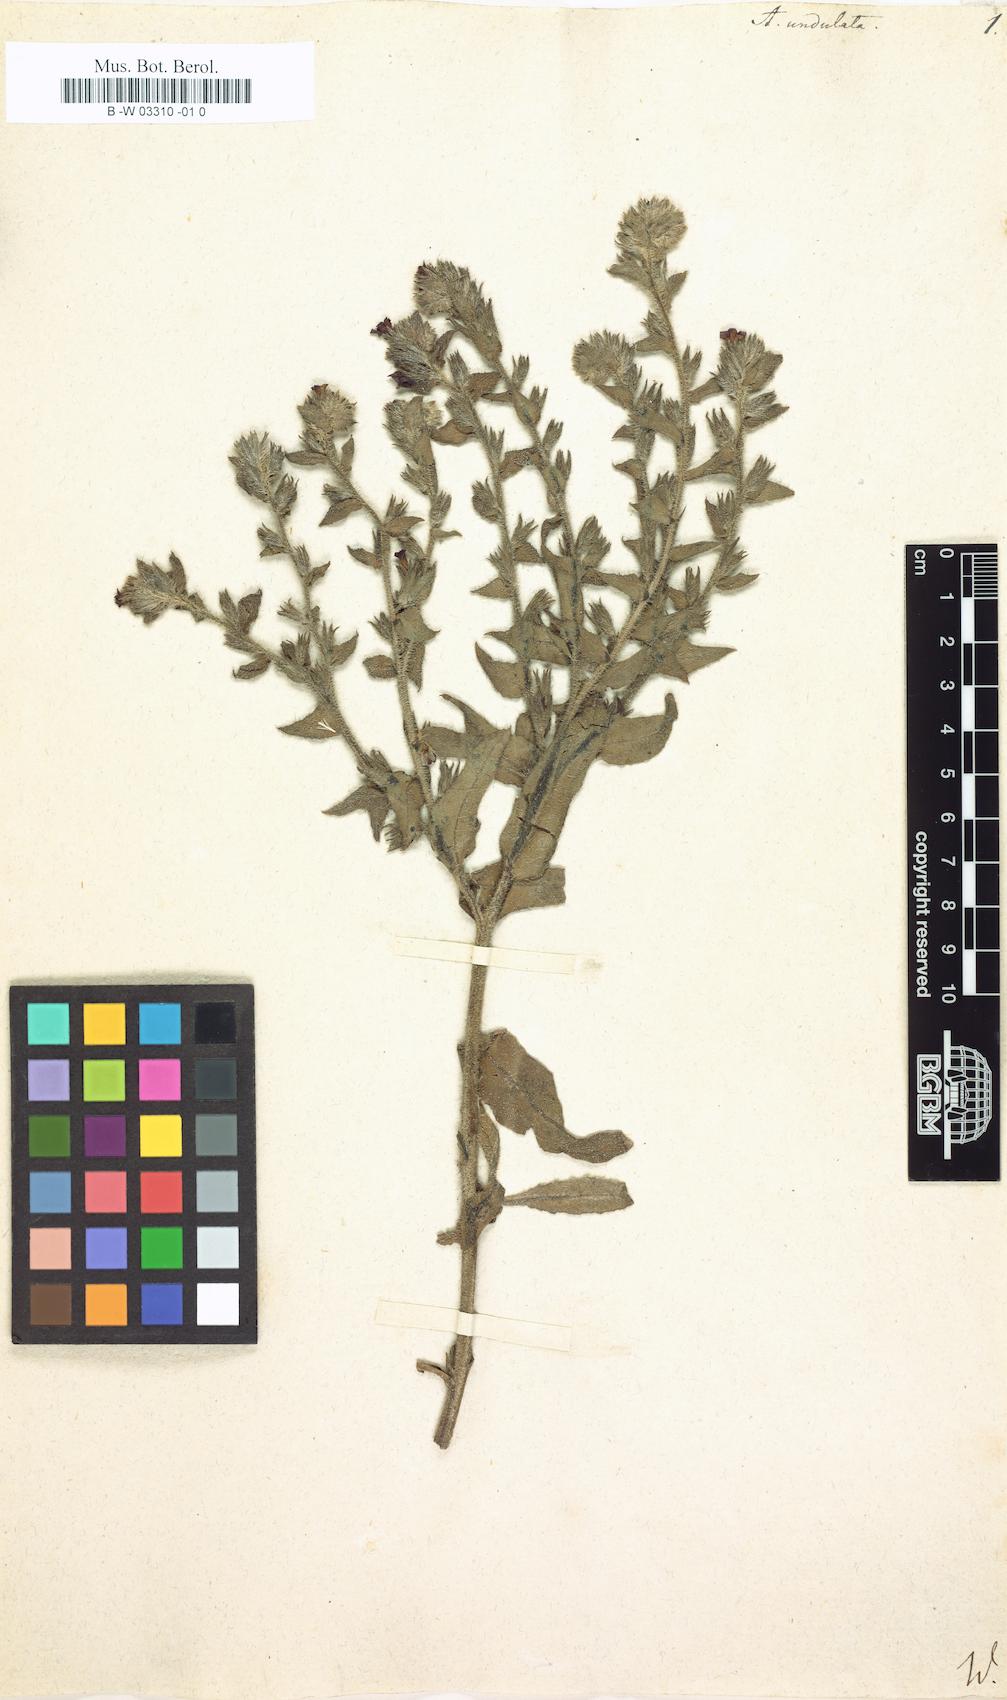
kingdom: Plantae
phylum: Tracheophyta
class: Magnoliopsida
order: Boraginales
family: Boraginaceae
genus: Anchusa
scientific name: Anchusa undulata
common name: Undulate alkanet
